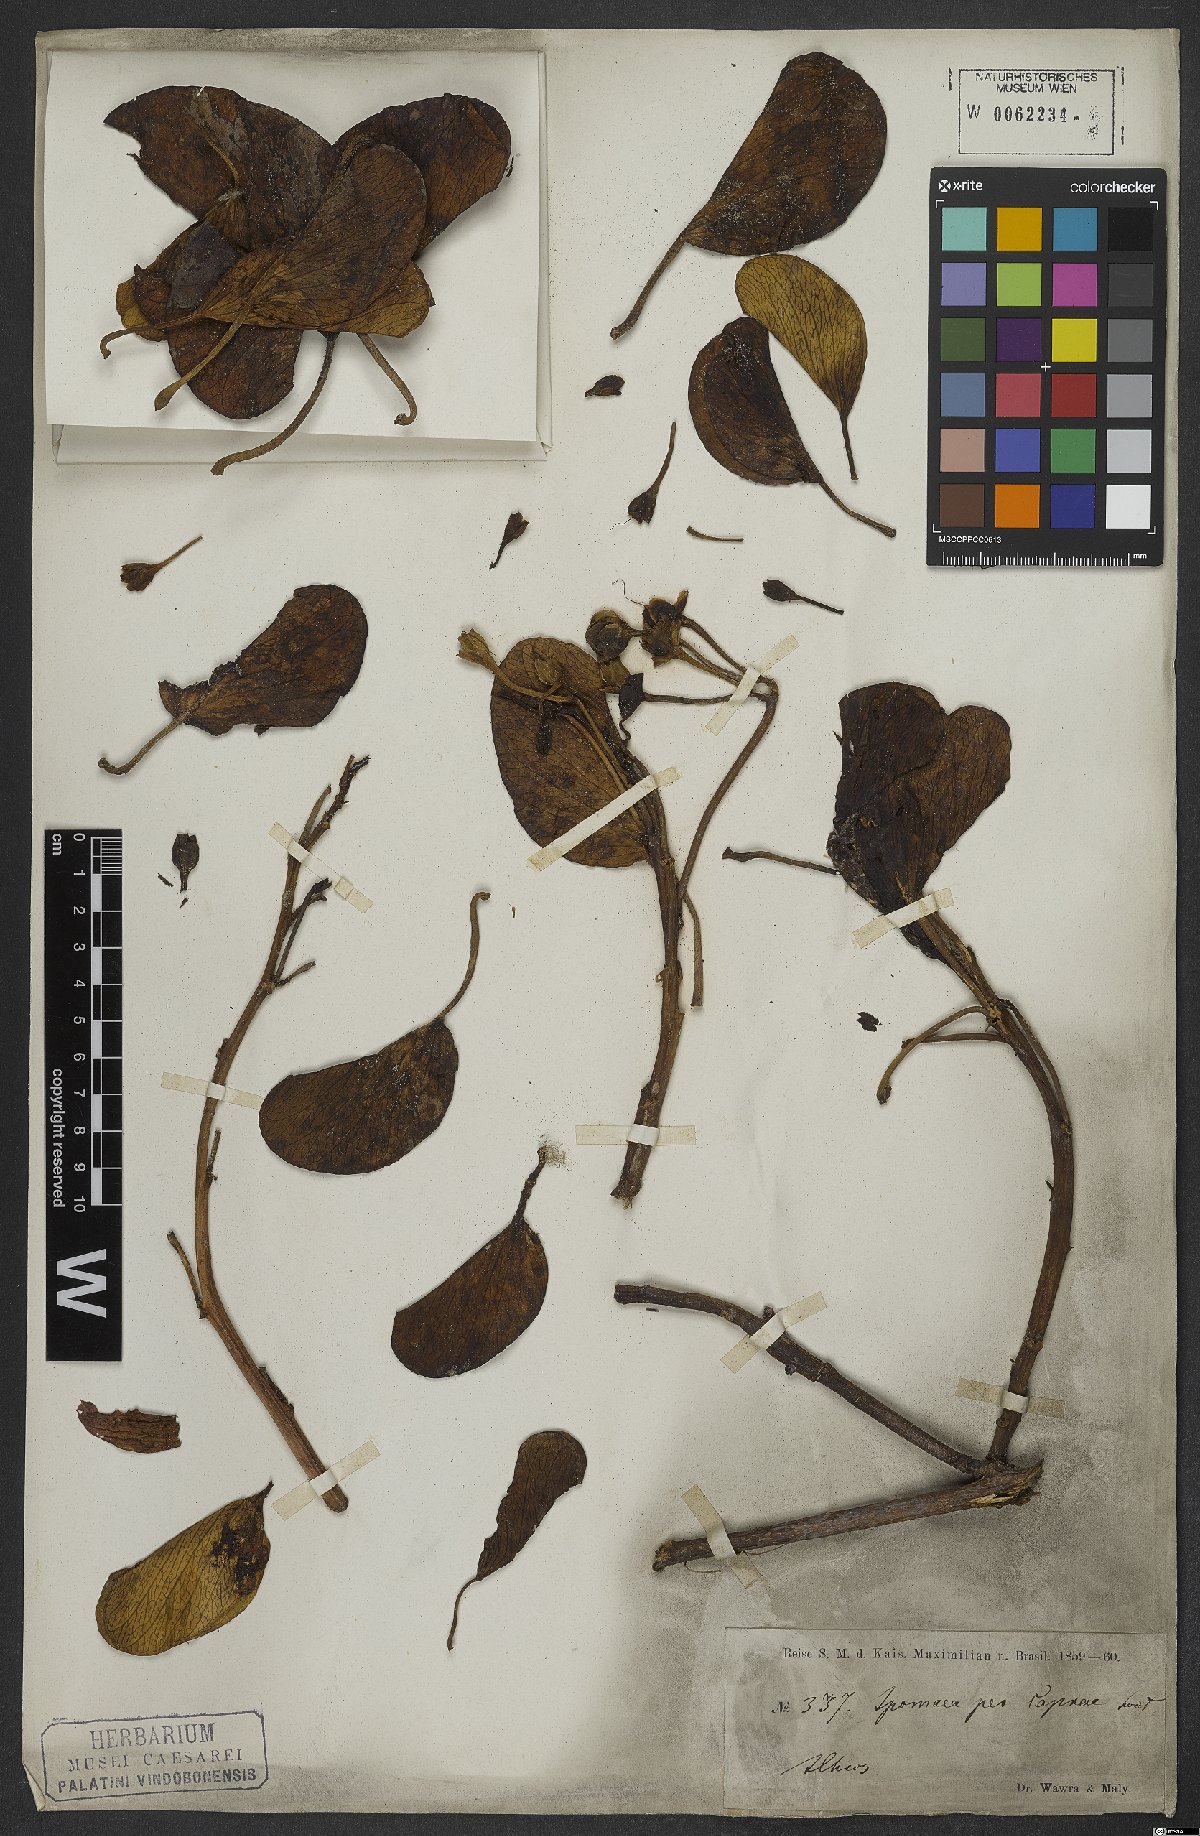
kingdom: Plantae
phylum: Tracheophyta
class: Magnoliopsida
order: Solanales
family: Convolvulaceae
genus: Ipomoea
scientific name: Ipomoea pes-caprae
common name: Beach morning glory
